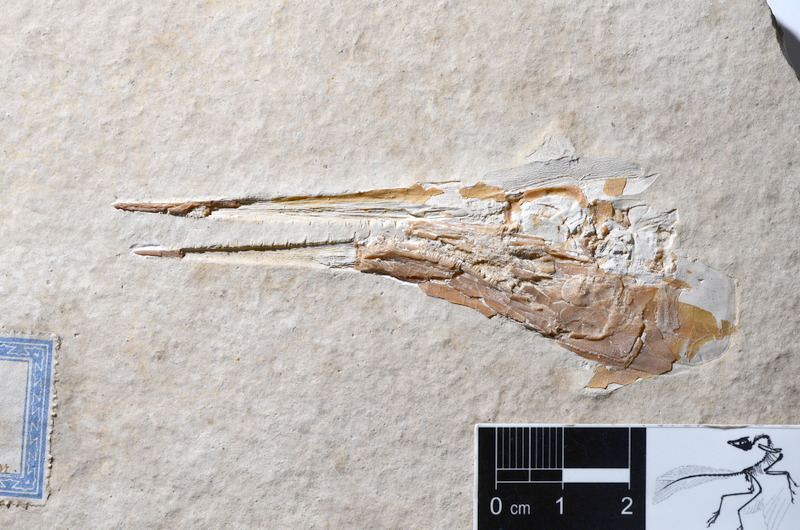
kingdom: Animalia
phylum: Chordata
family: Aspidorhynchidae
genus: Belonostomus
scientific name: Belonostomus
